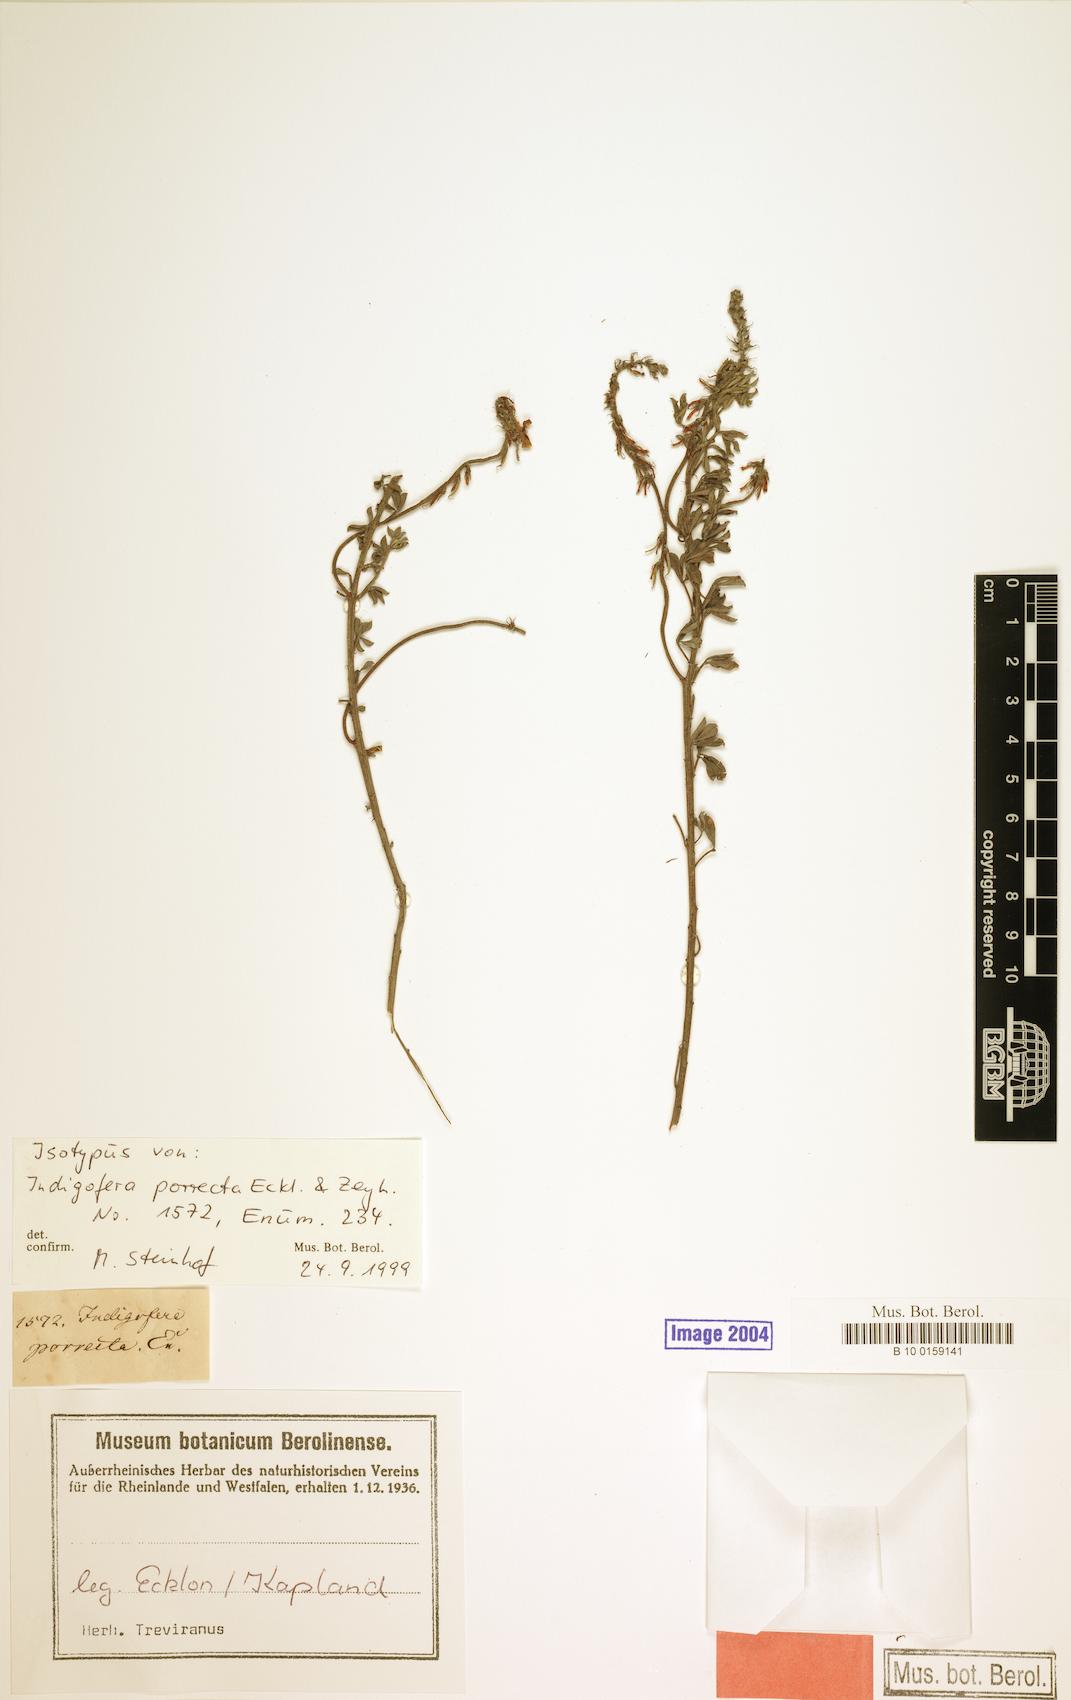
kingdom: Plantae
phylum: Tracheophyta
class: Magnoliopsida
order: Fabales
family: Fabaceae
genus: Indigofera
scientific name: Indigofera porrecta
